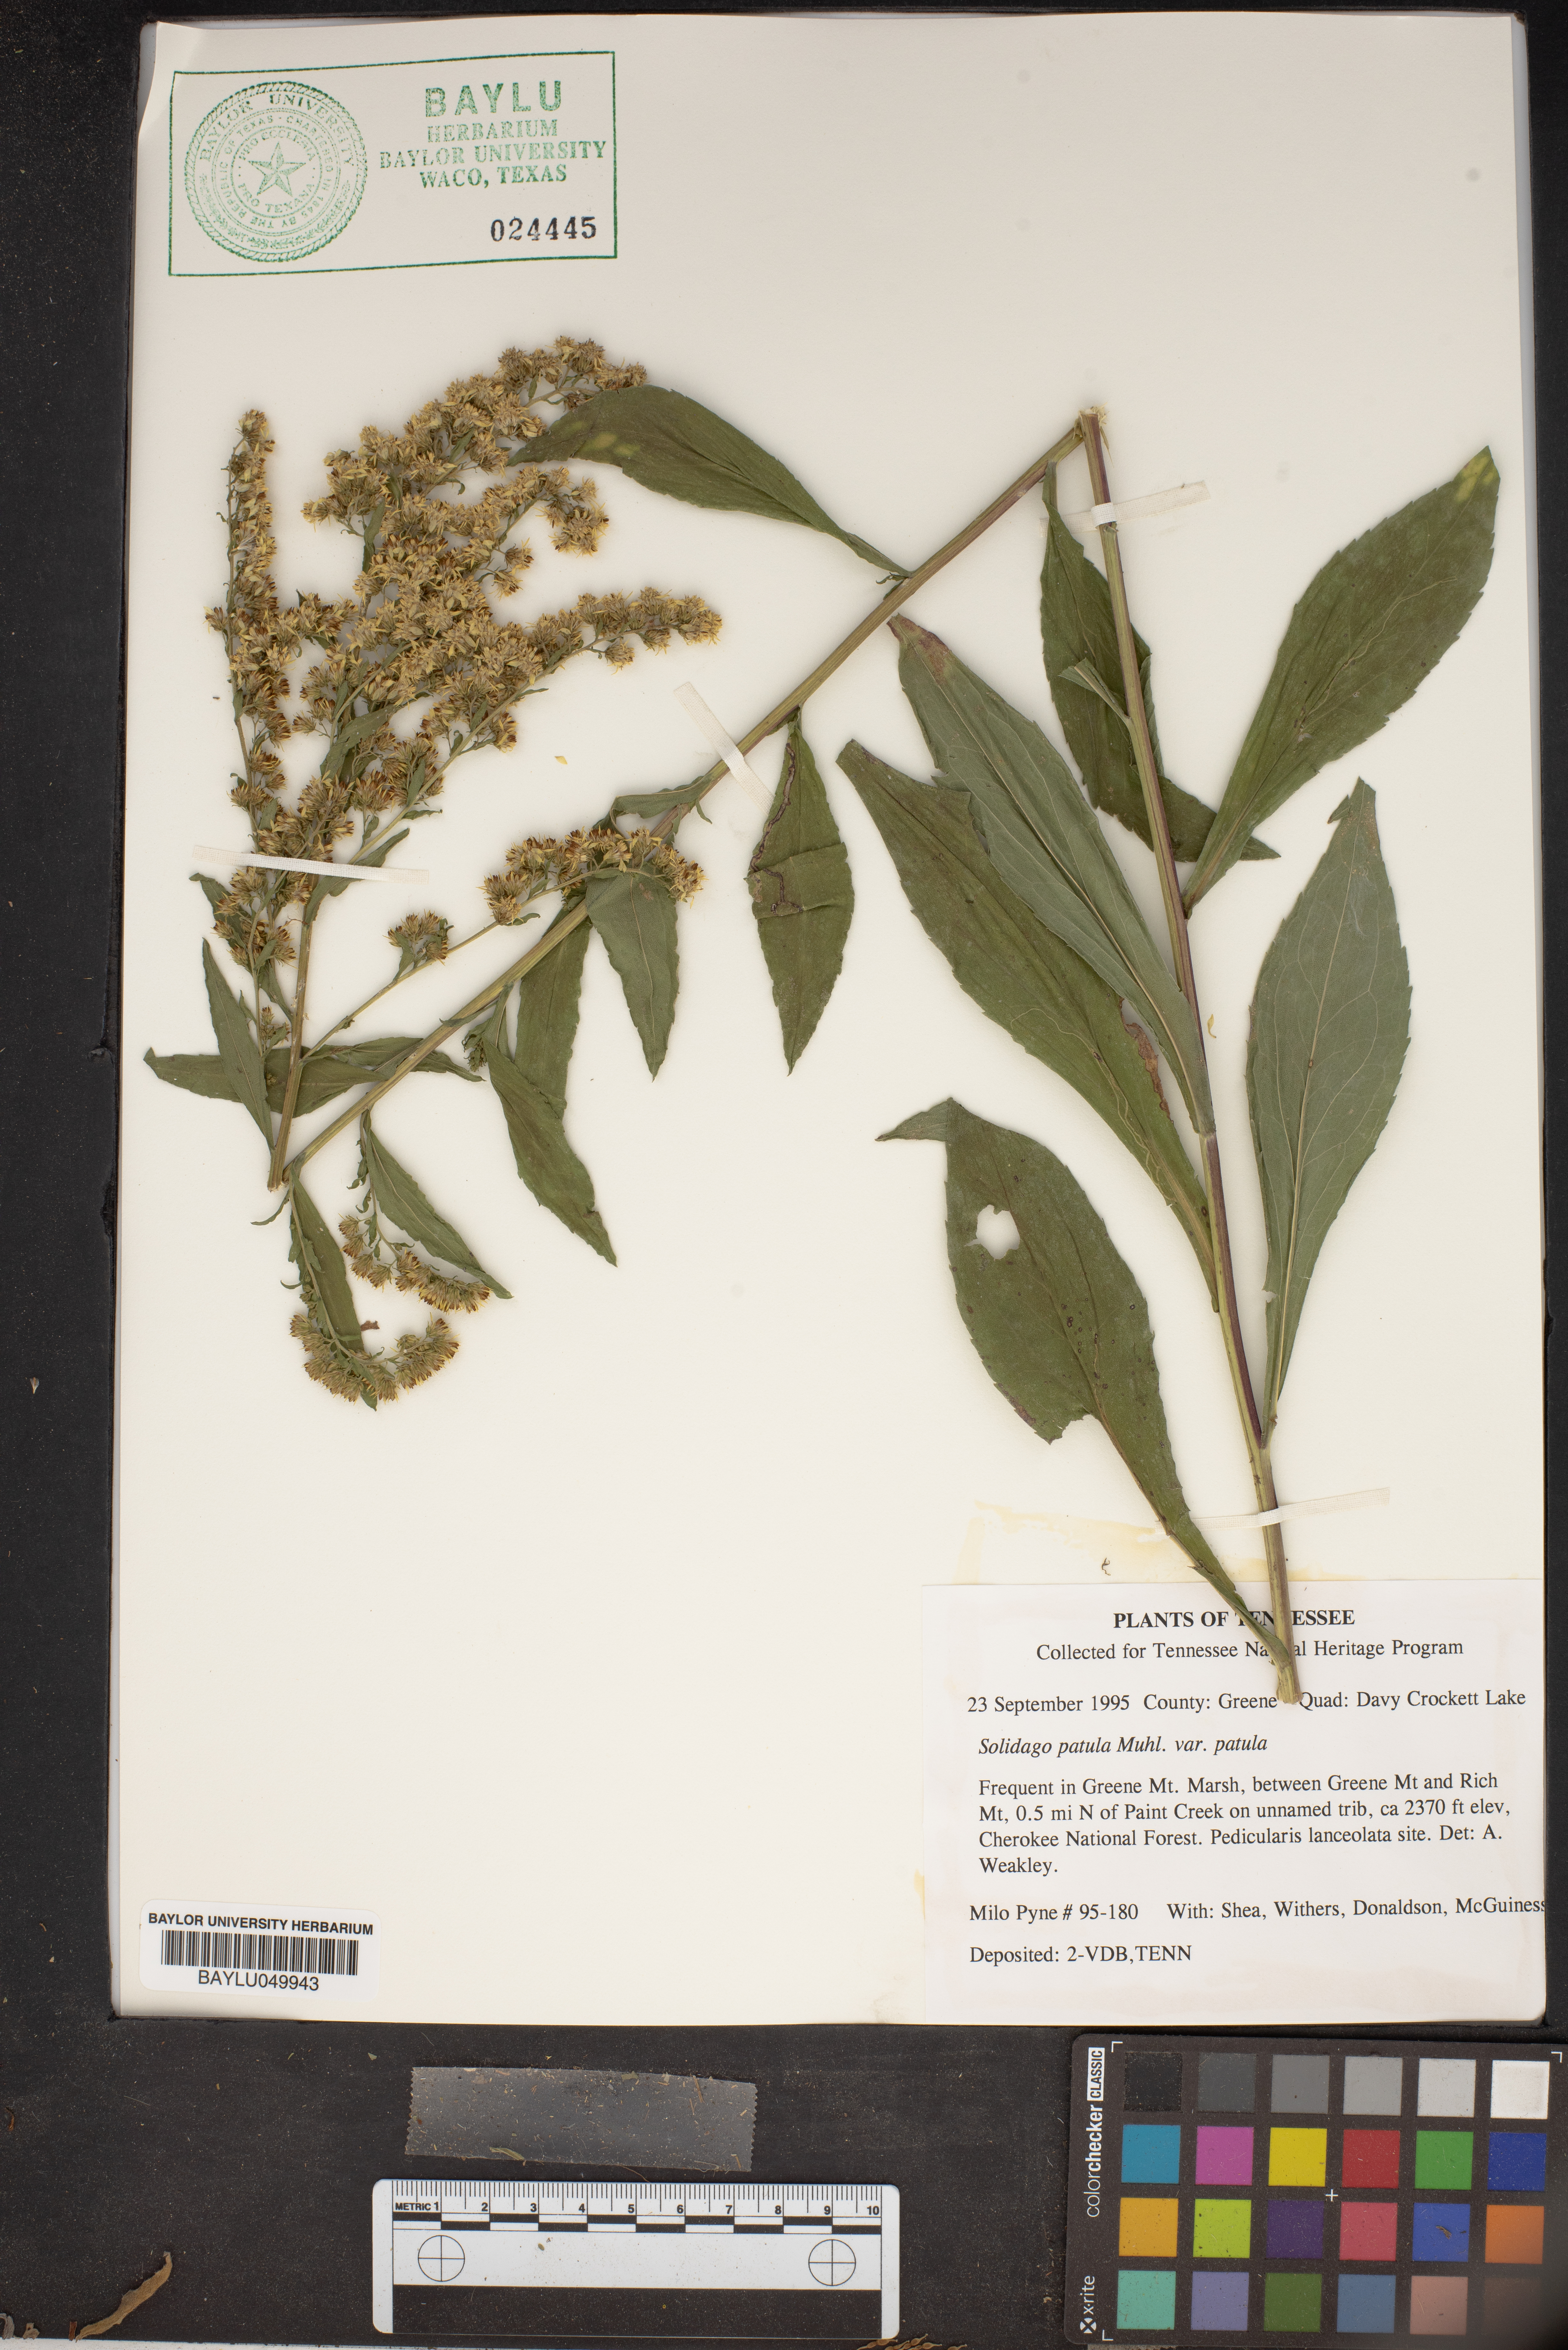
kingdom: Plantae
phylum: Tracheophyta
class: Magnoliopsida
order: Asterales
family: Asteraceae
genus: Solidago
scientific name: Solidago patula
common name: Rough-leaf goldenrod
